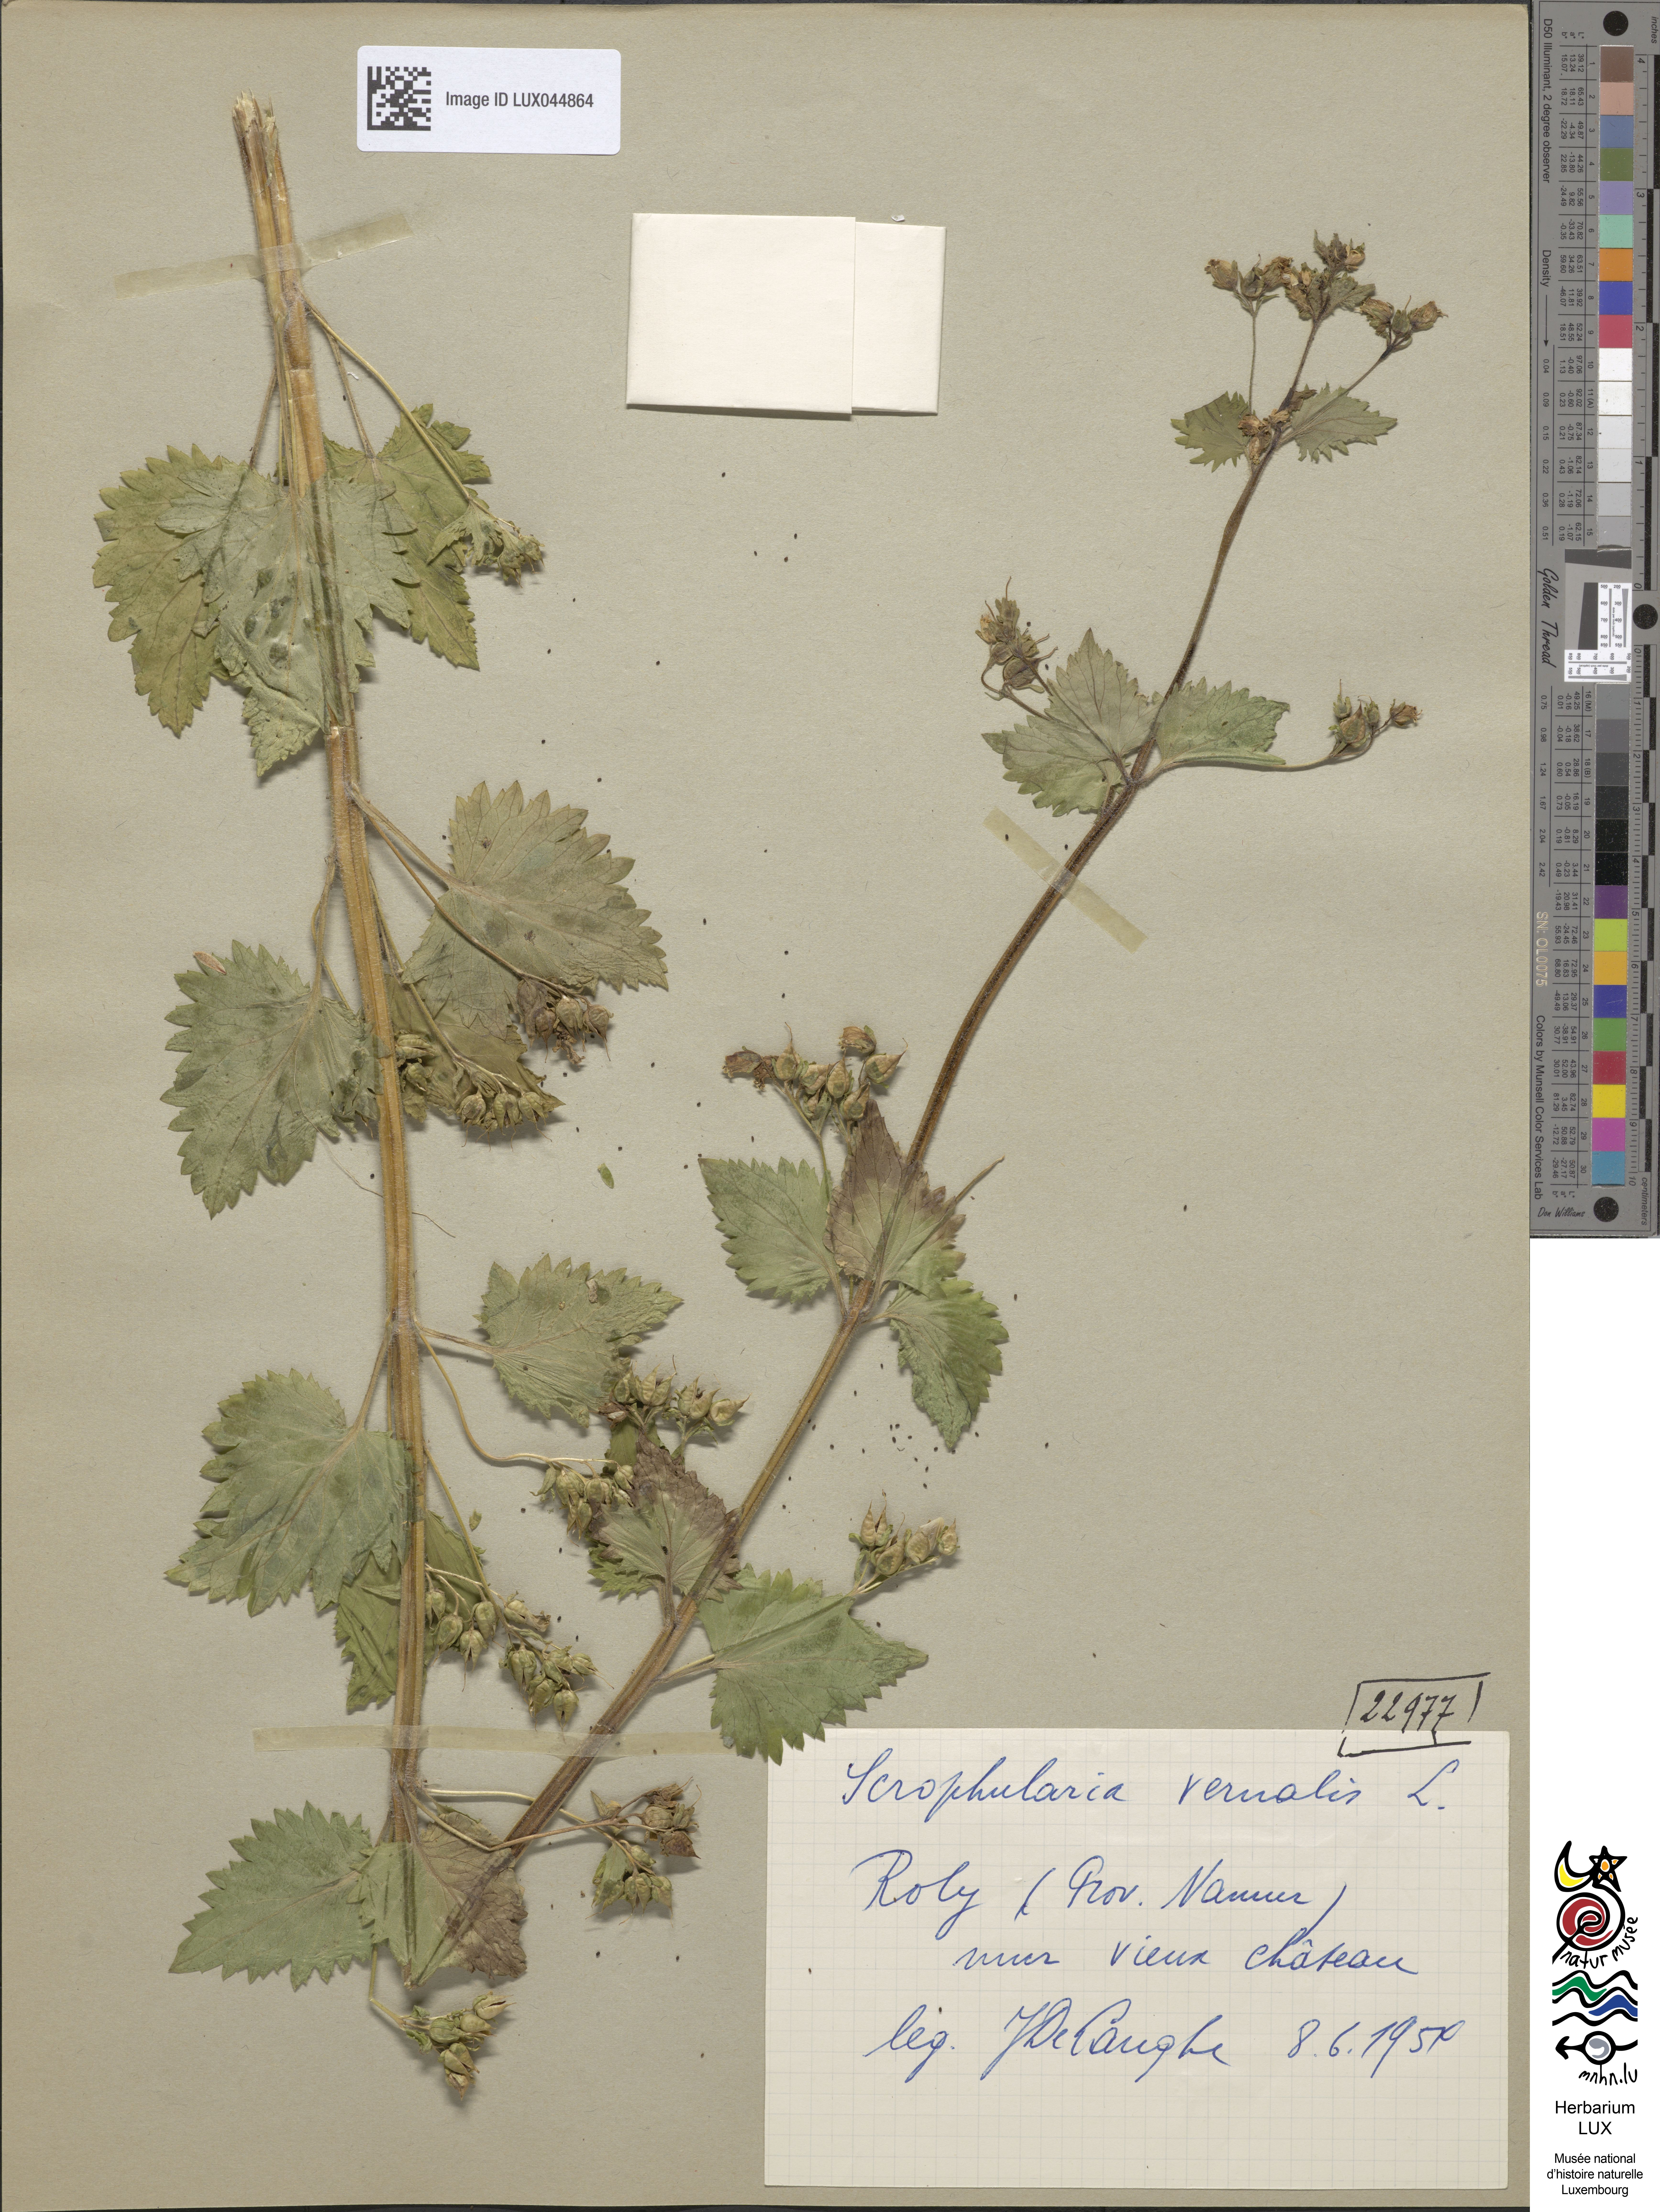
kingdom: Plantae
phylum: Tracheophyta
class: Magnoliopsida
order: Lamiales
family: Scrophulariaceae
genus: Scrophularia
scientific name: Scrophularia vernalis
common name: Yellow figwort
